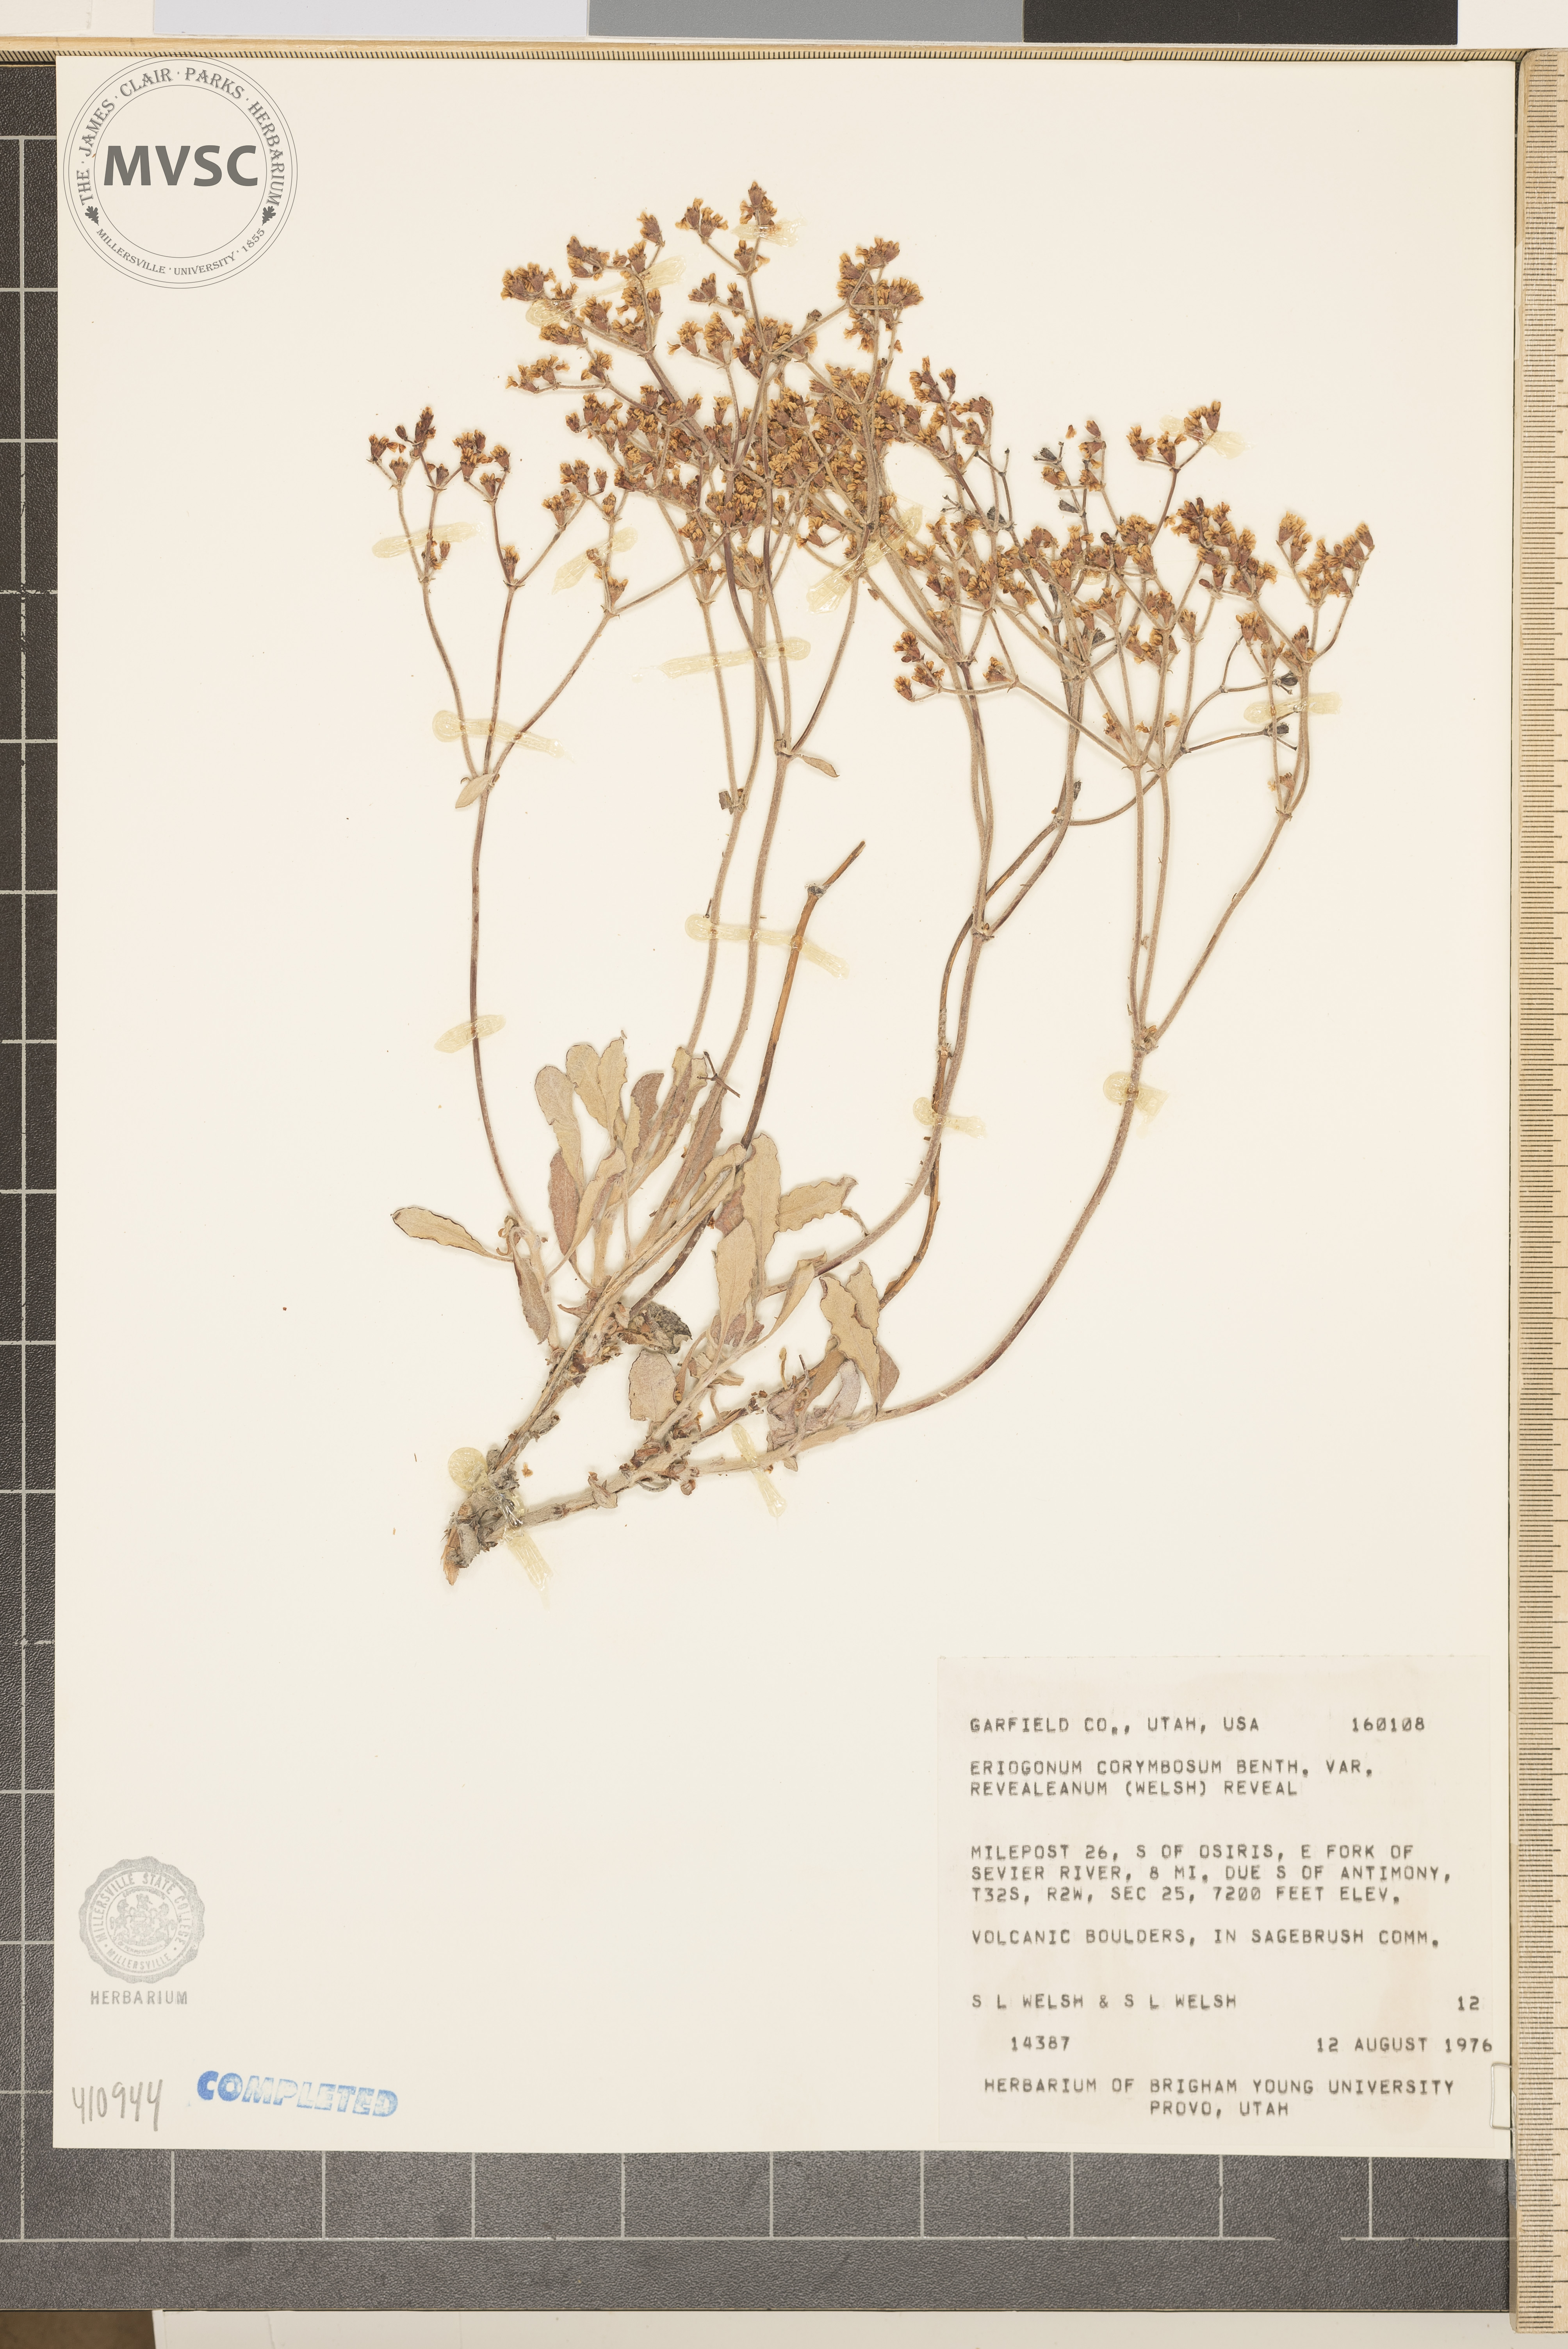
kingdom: Plantae
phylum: Tracheophyta
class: Magnoliopsida
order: Caryophyllales
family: Polygonaceae
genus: Eriogonum
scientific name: Eriogonum corymbosum
